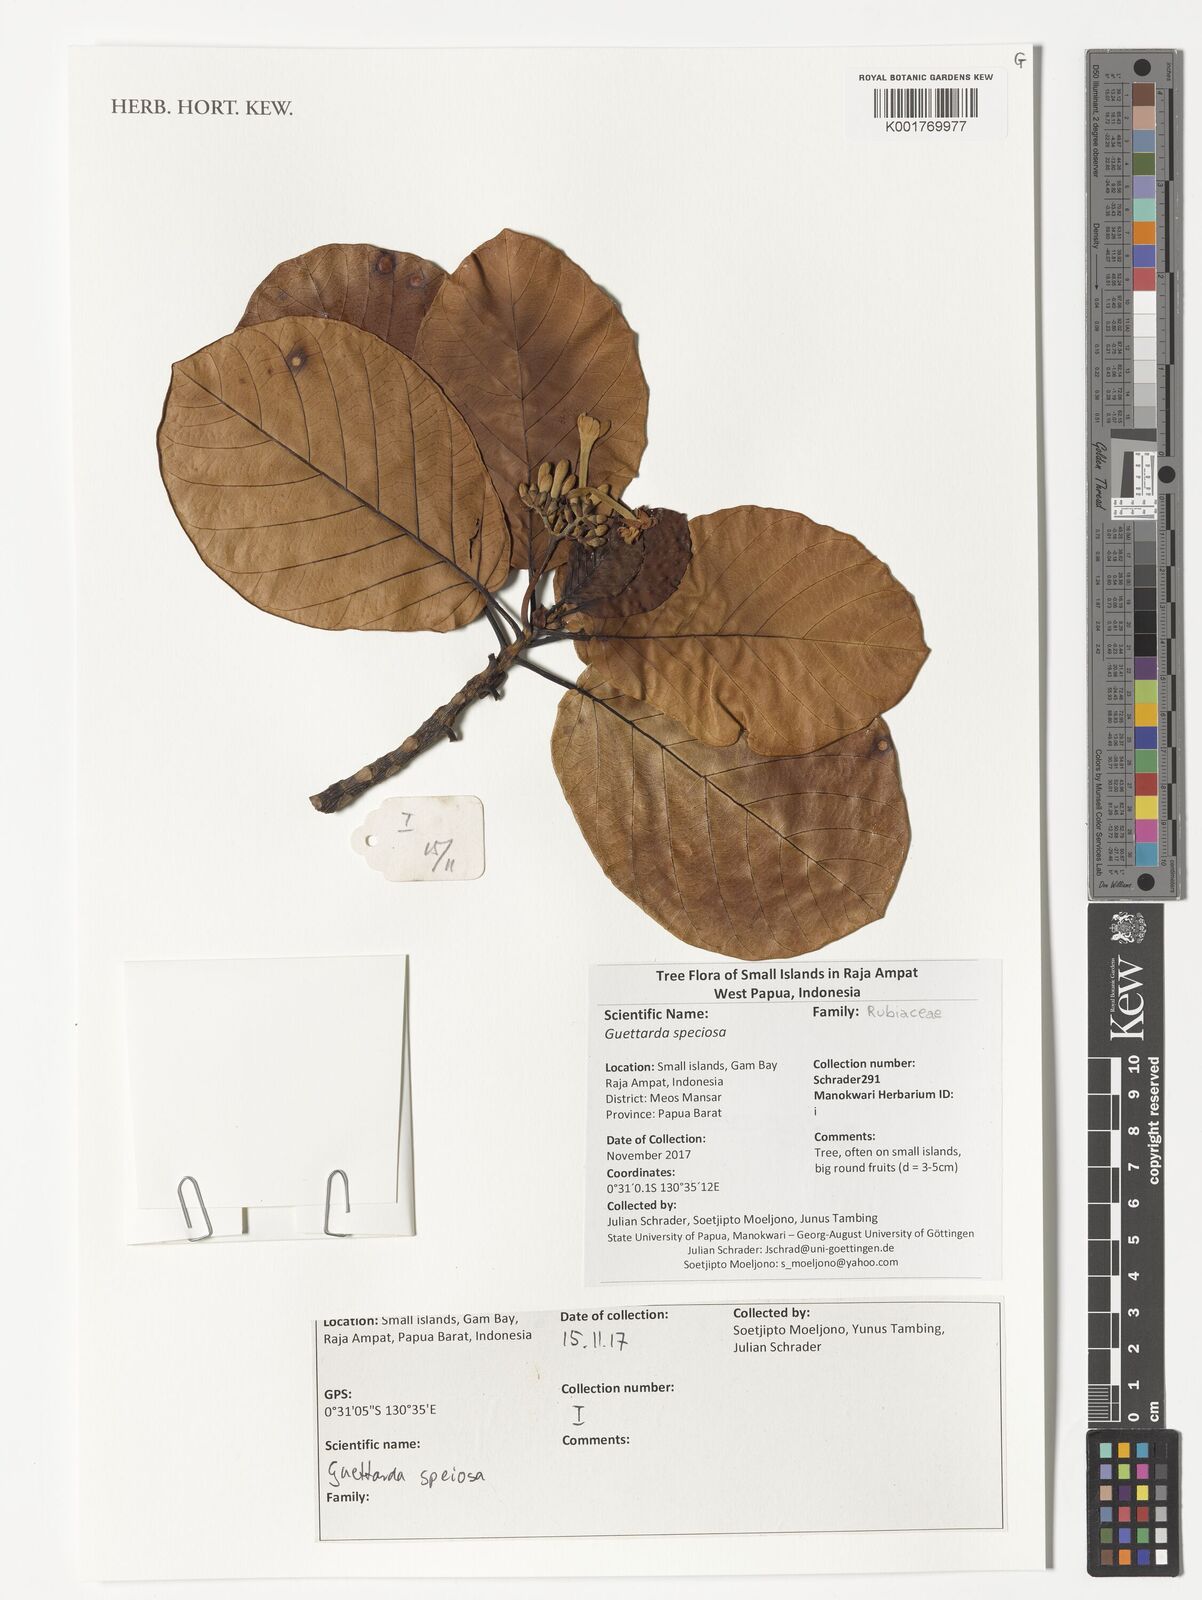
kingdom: Plantae
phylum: Tracheophyta
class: Magnoliopsida
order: Gentianales
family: Rubiaceae
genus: Guettarda
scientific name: Guettarda speciosa
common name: Sea randa
